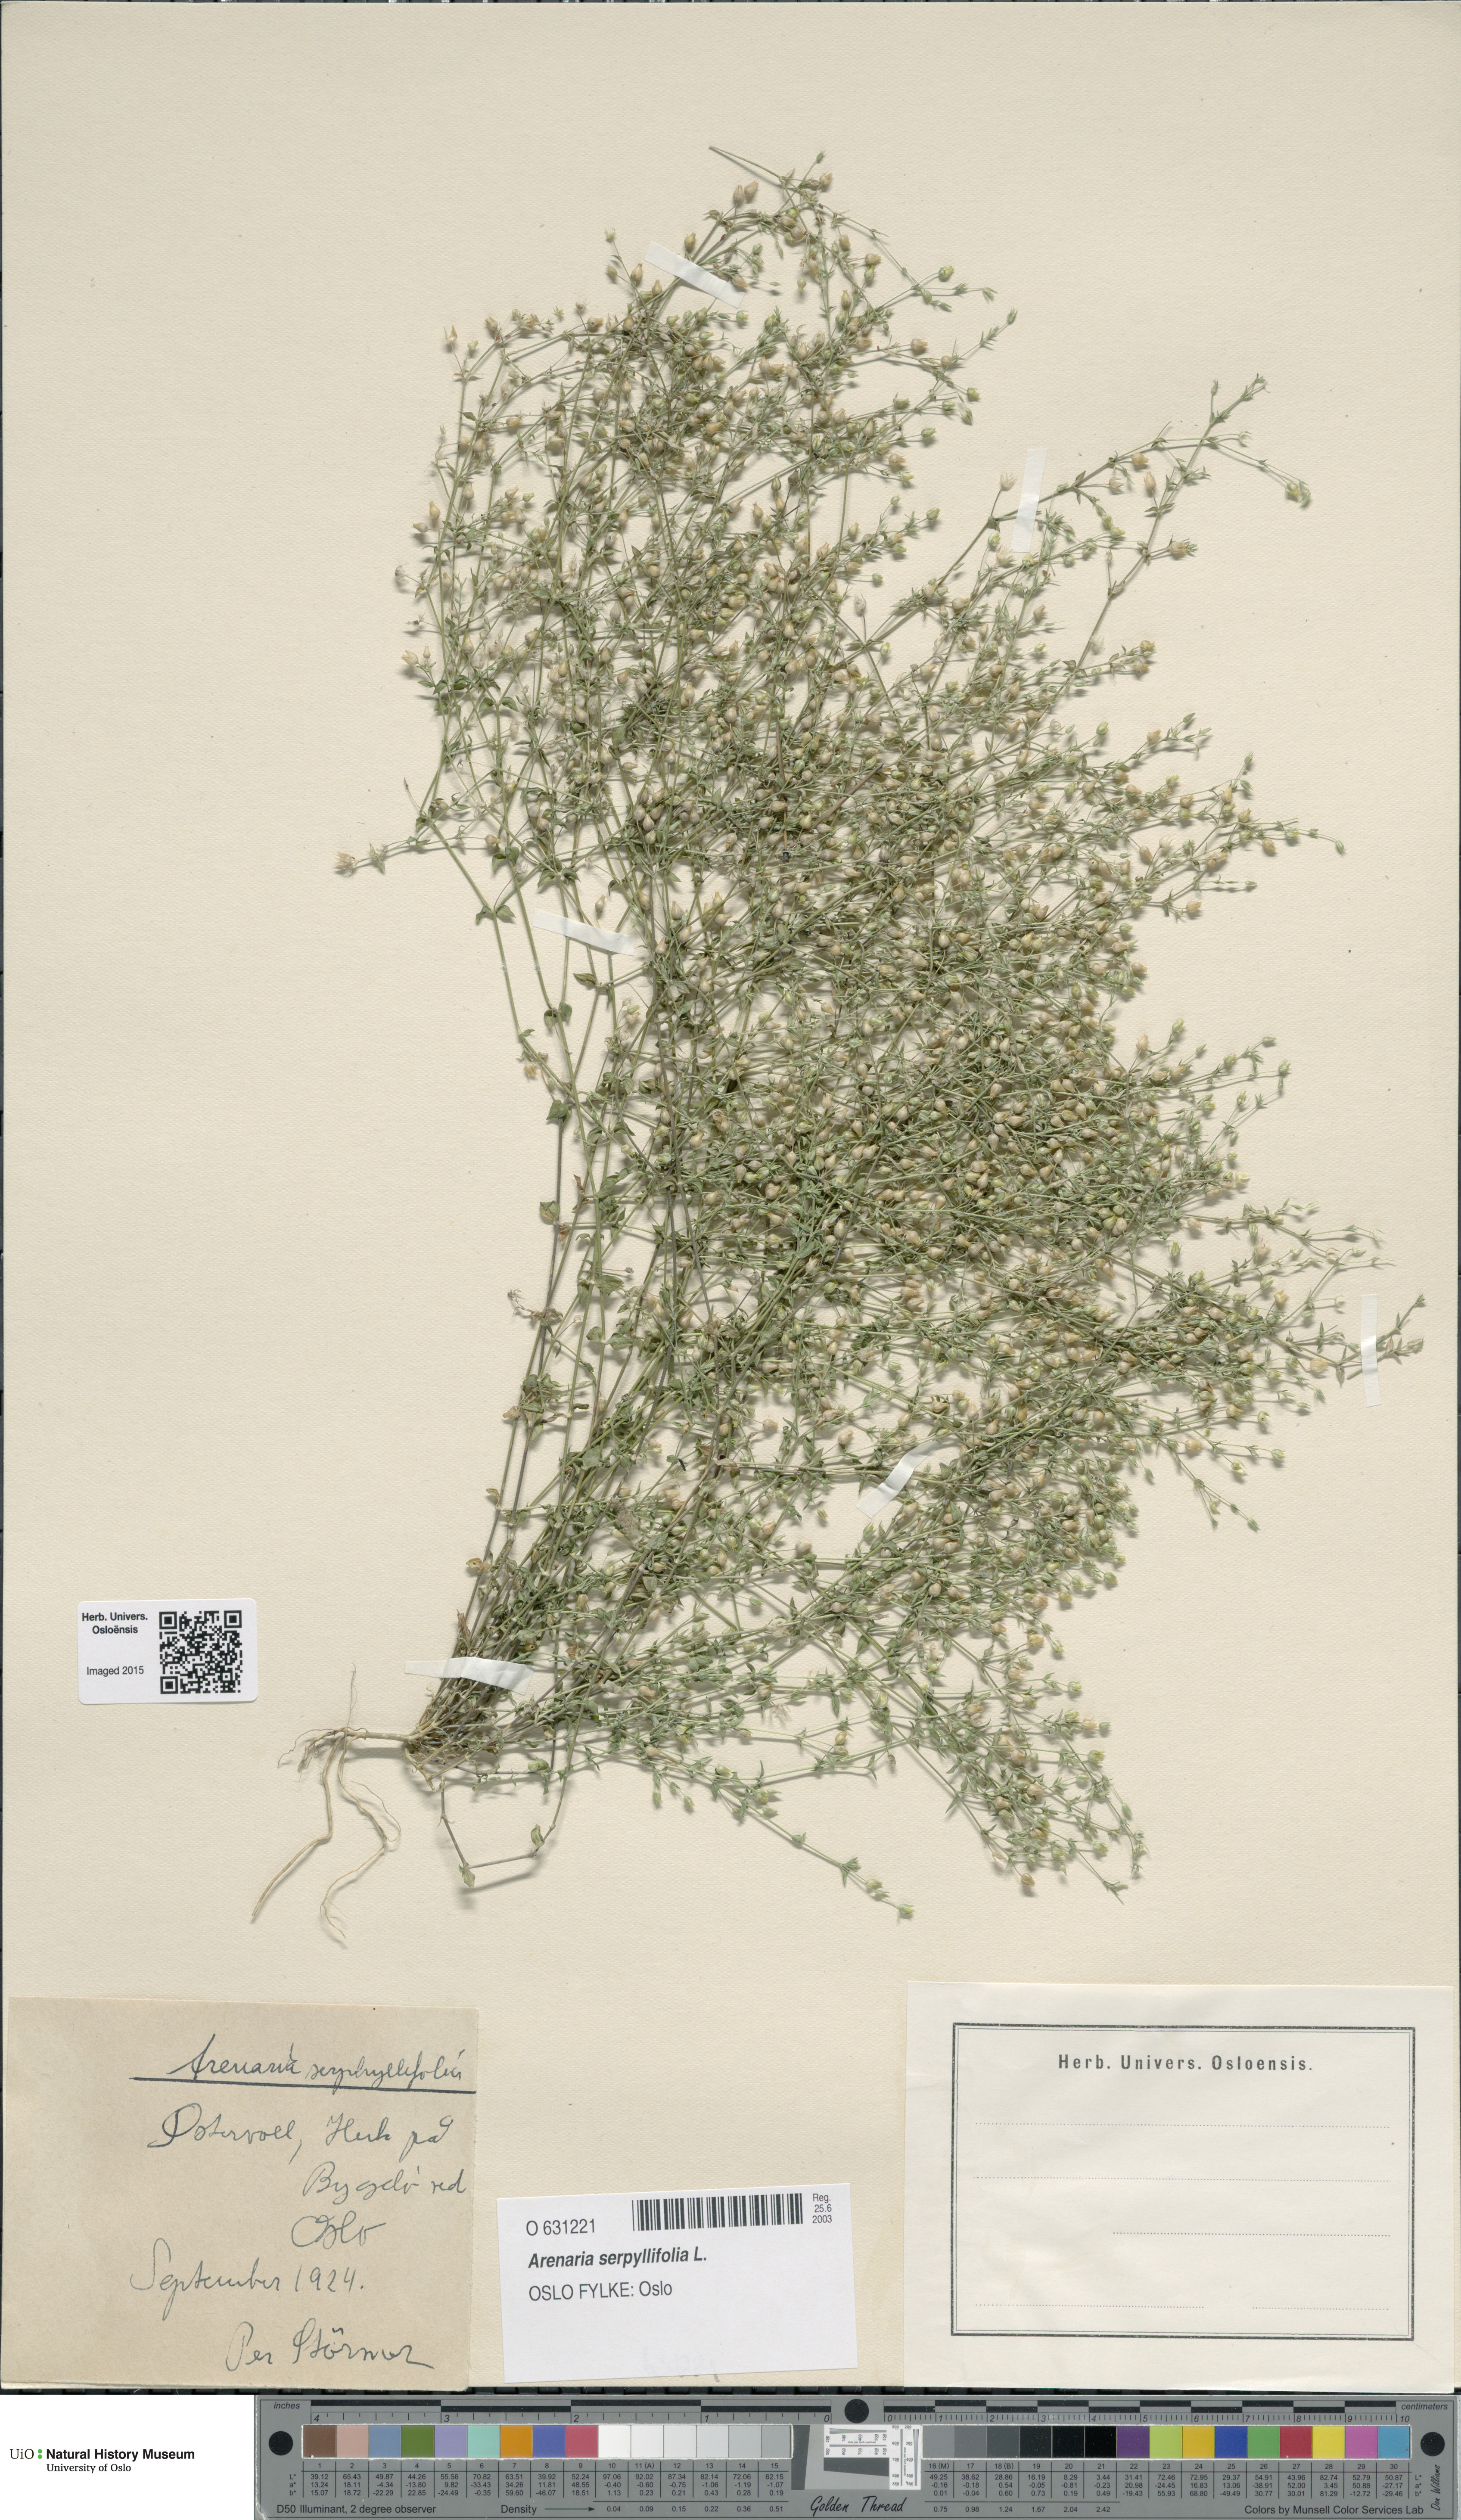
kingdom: Plantae
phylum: Tracheophyta
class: Magnoliopsida
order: Caryophyllales
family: Caryophyllaceae
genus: Arenaria
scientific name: Arenaria serpyllifolia
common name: Thyme-leaved sandwort
